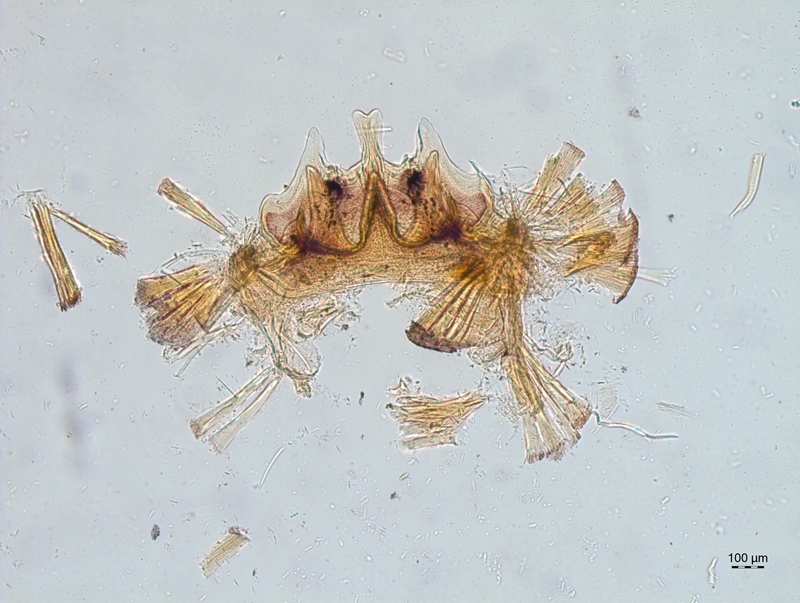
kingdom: Animalia
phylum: Arthropoda
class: Diplopoda
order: Chordeumatida
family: Craspedosomatidae
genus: Craspedosoma
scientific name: Craspedosoma alemannicum
